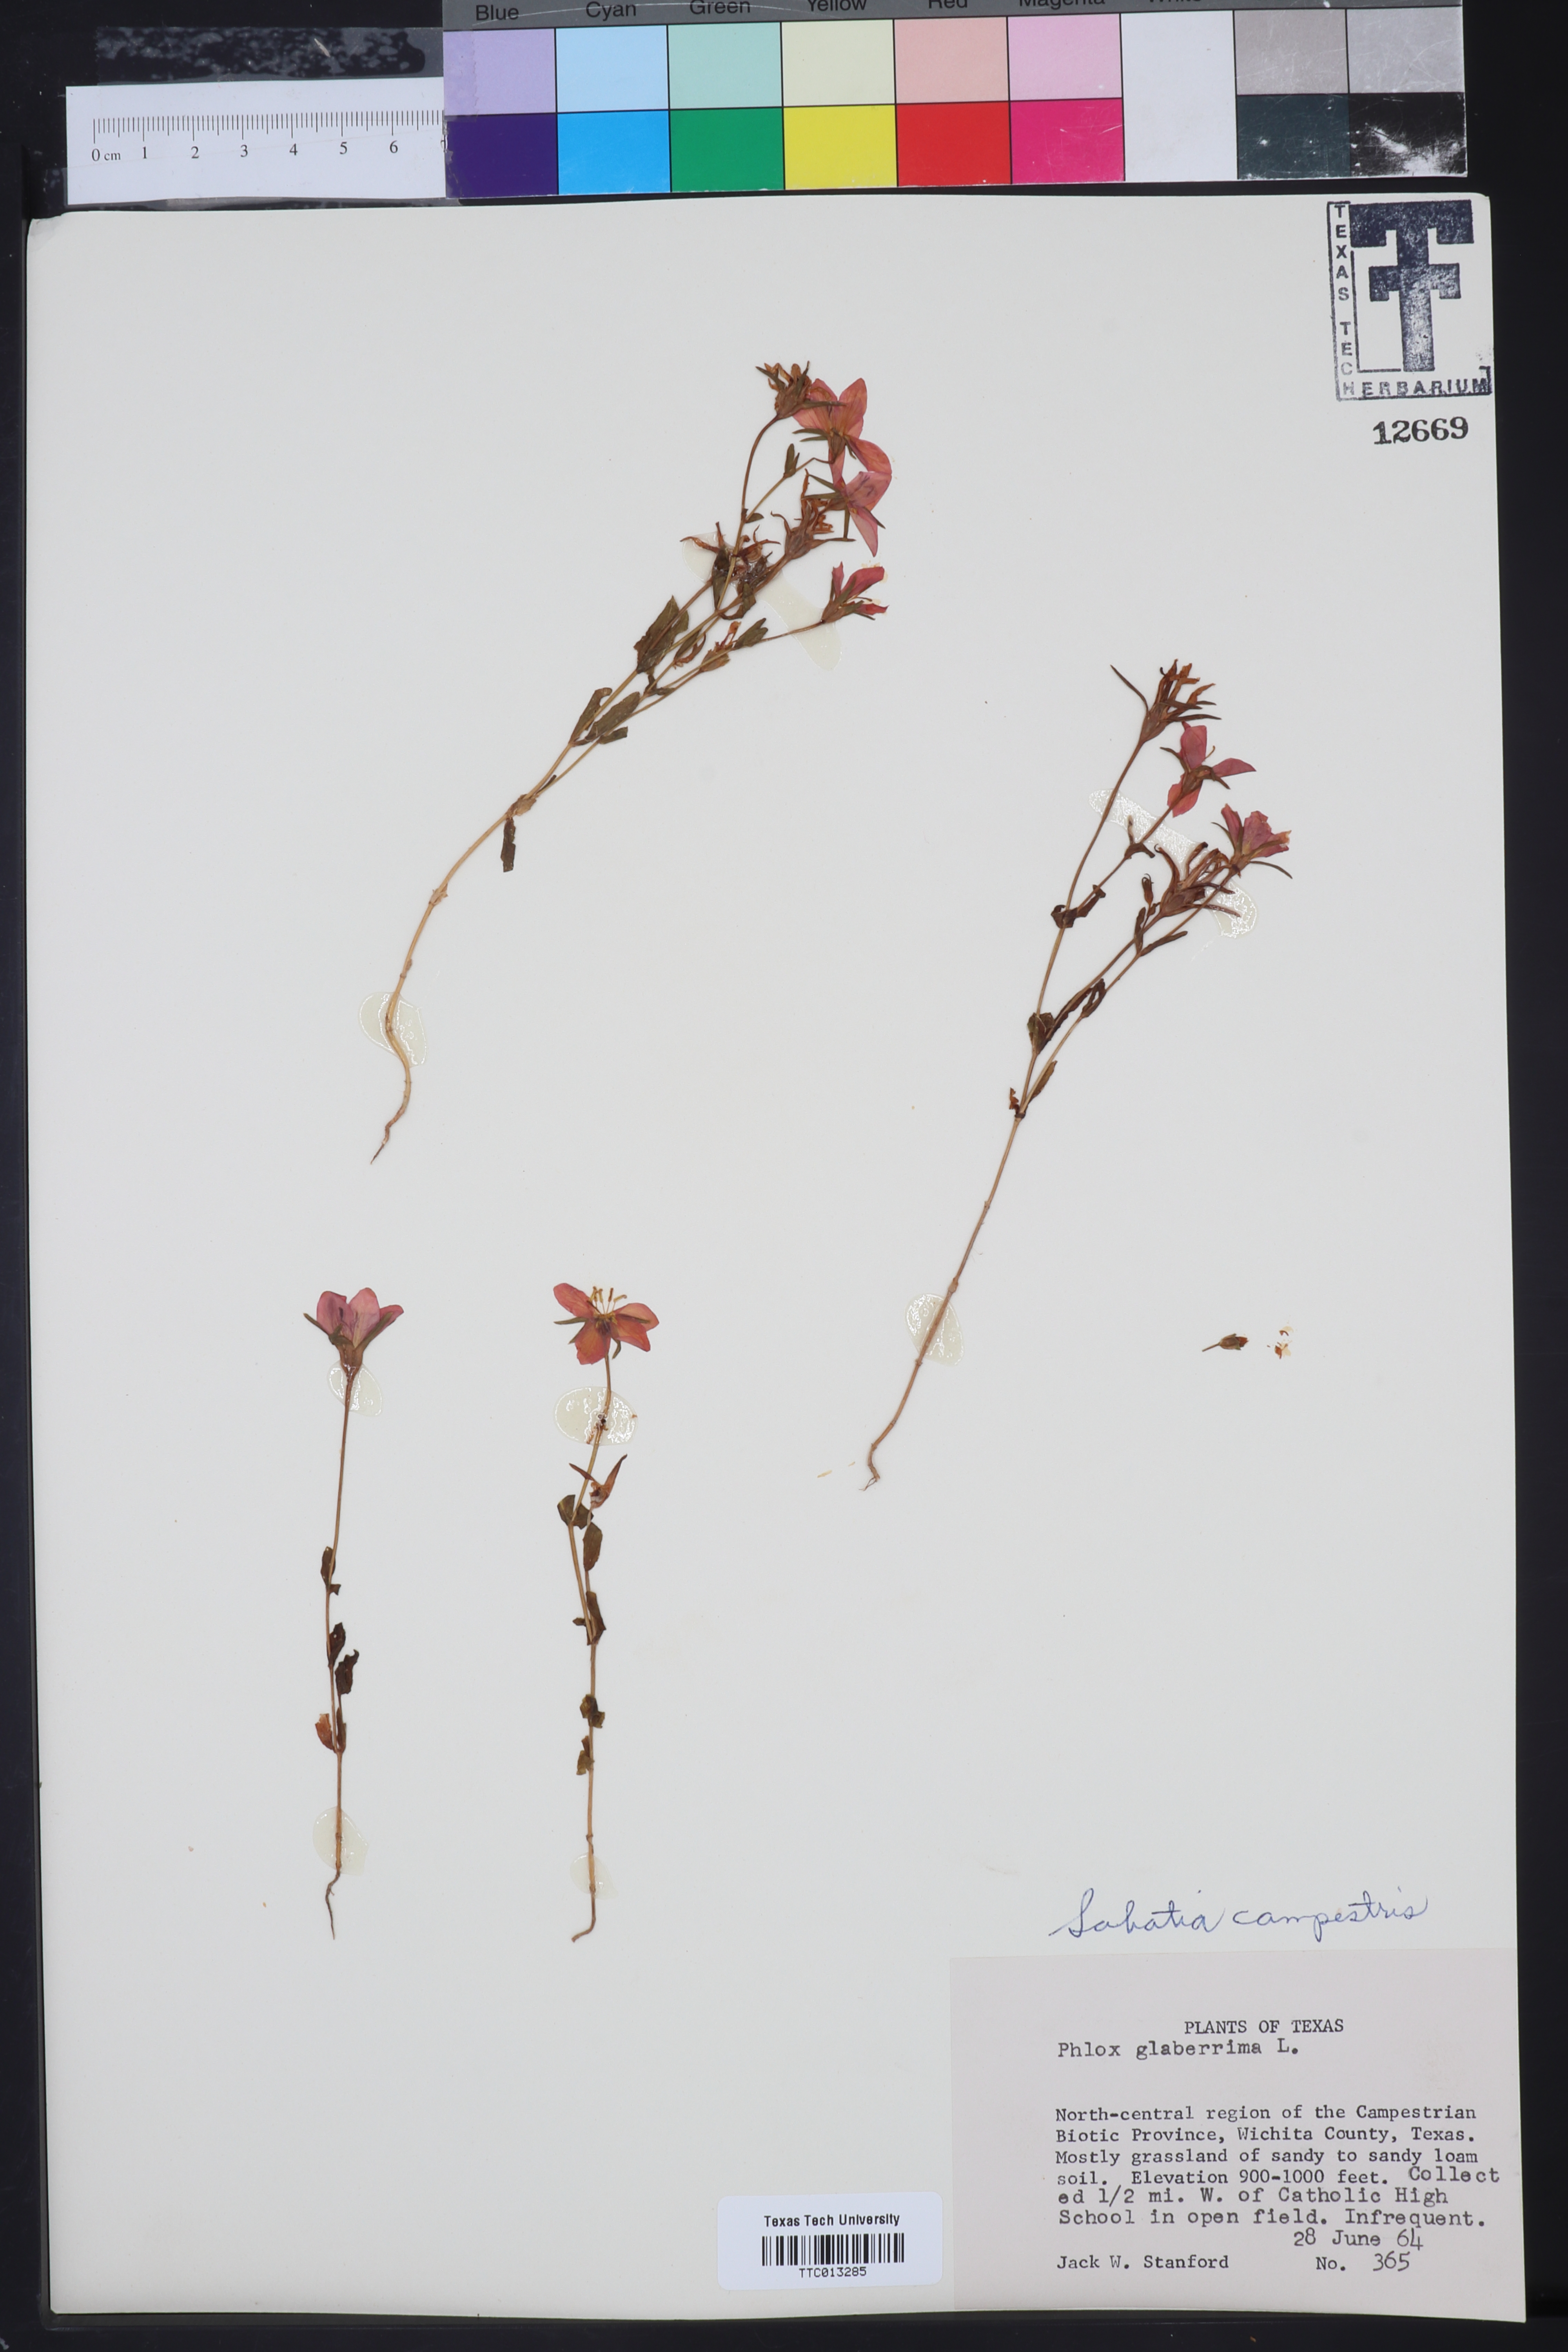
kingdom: Plantae
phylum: Tracheophyta
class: Magnoliopsida
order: Gentianales
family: Gentianaceae
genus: Sabatia
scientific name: Sabatia campestris
